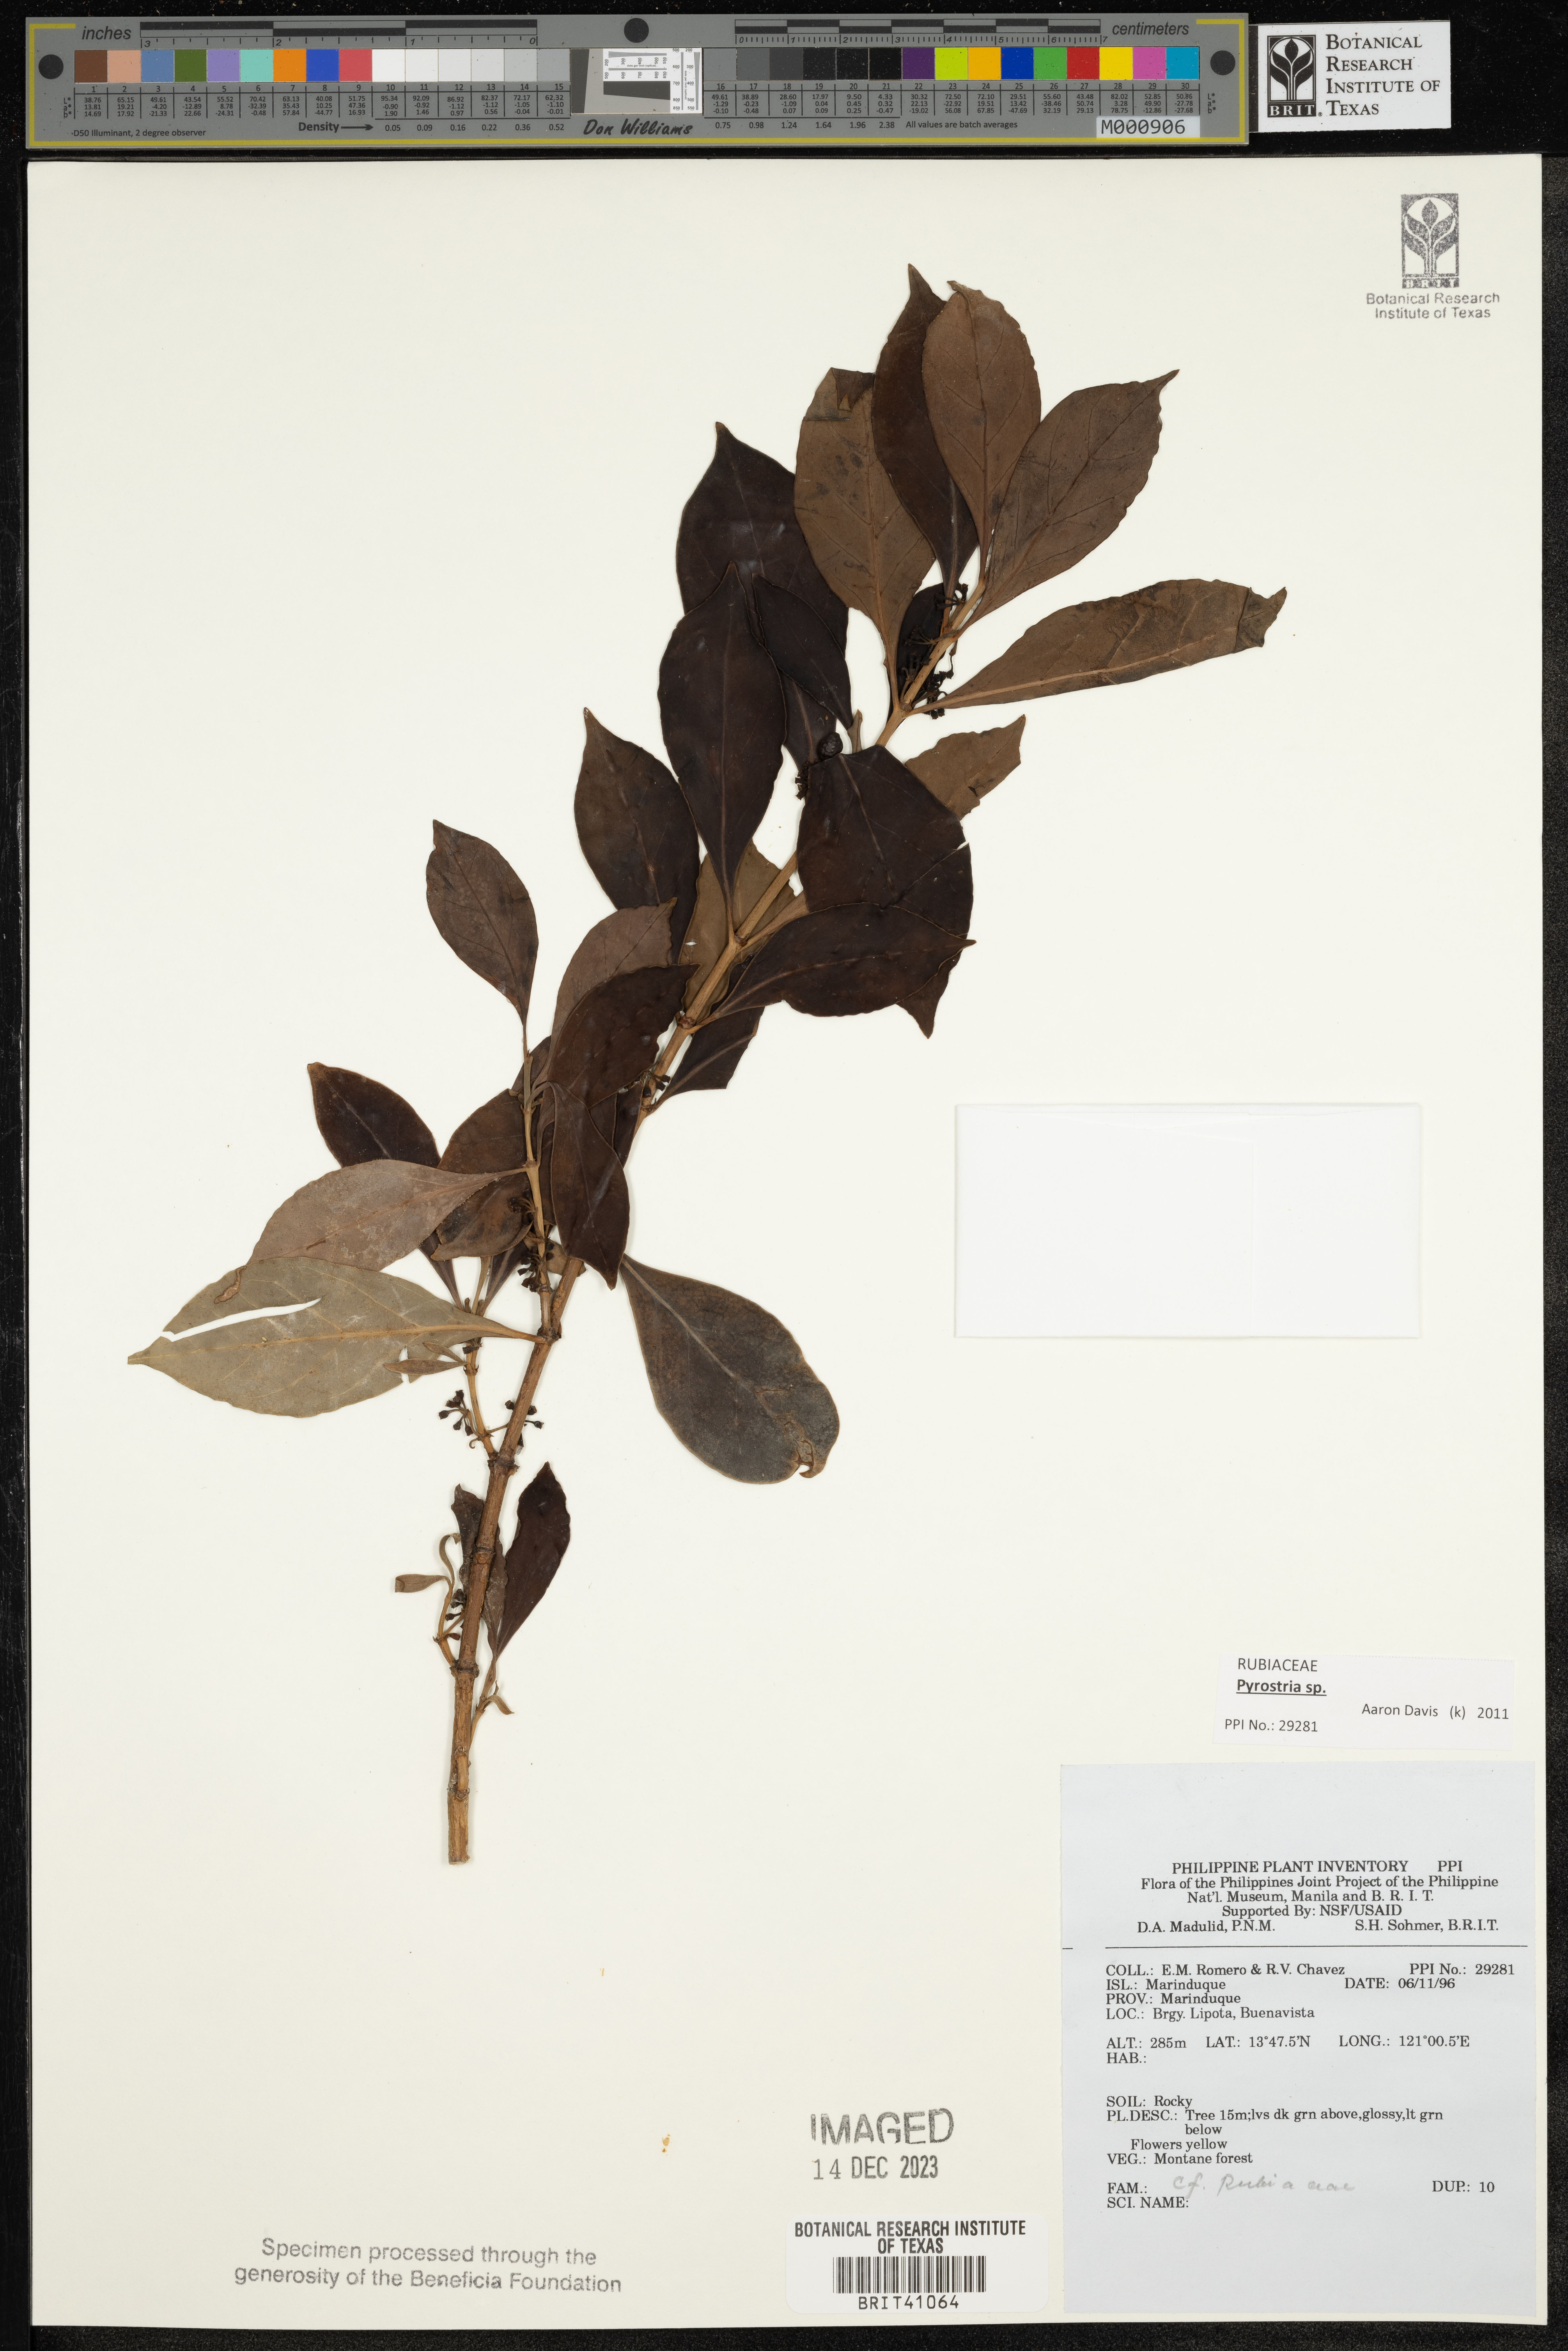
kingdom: Plantae
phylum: Tracheophyta
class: Magnoliopsida
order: Gentianales
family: Rubiaceae
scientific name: Rubiaceae
